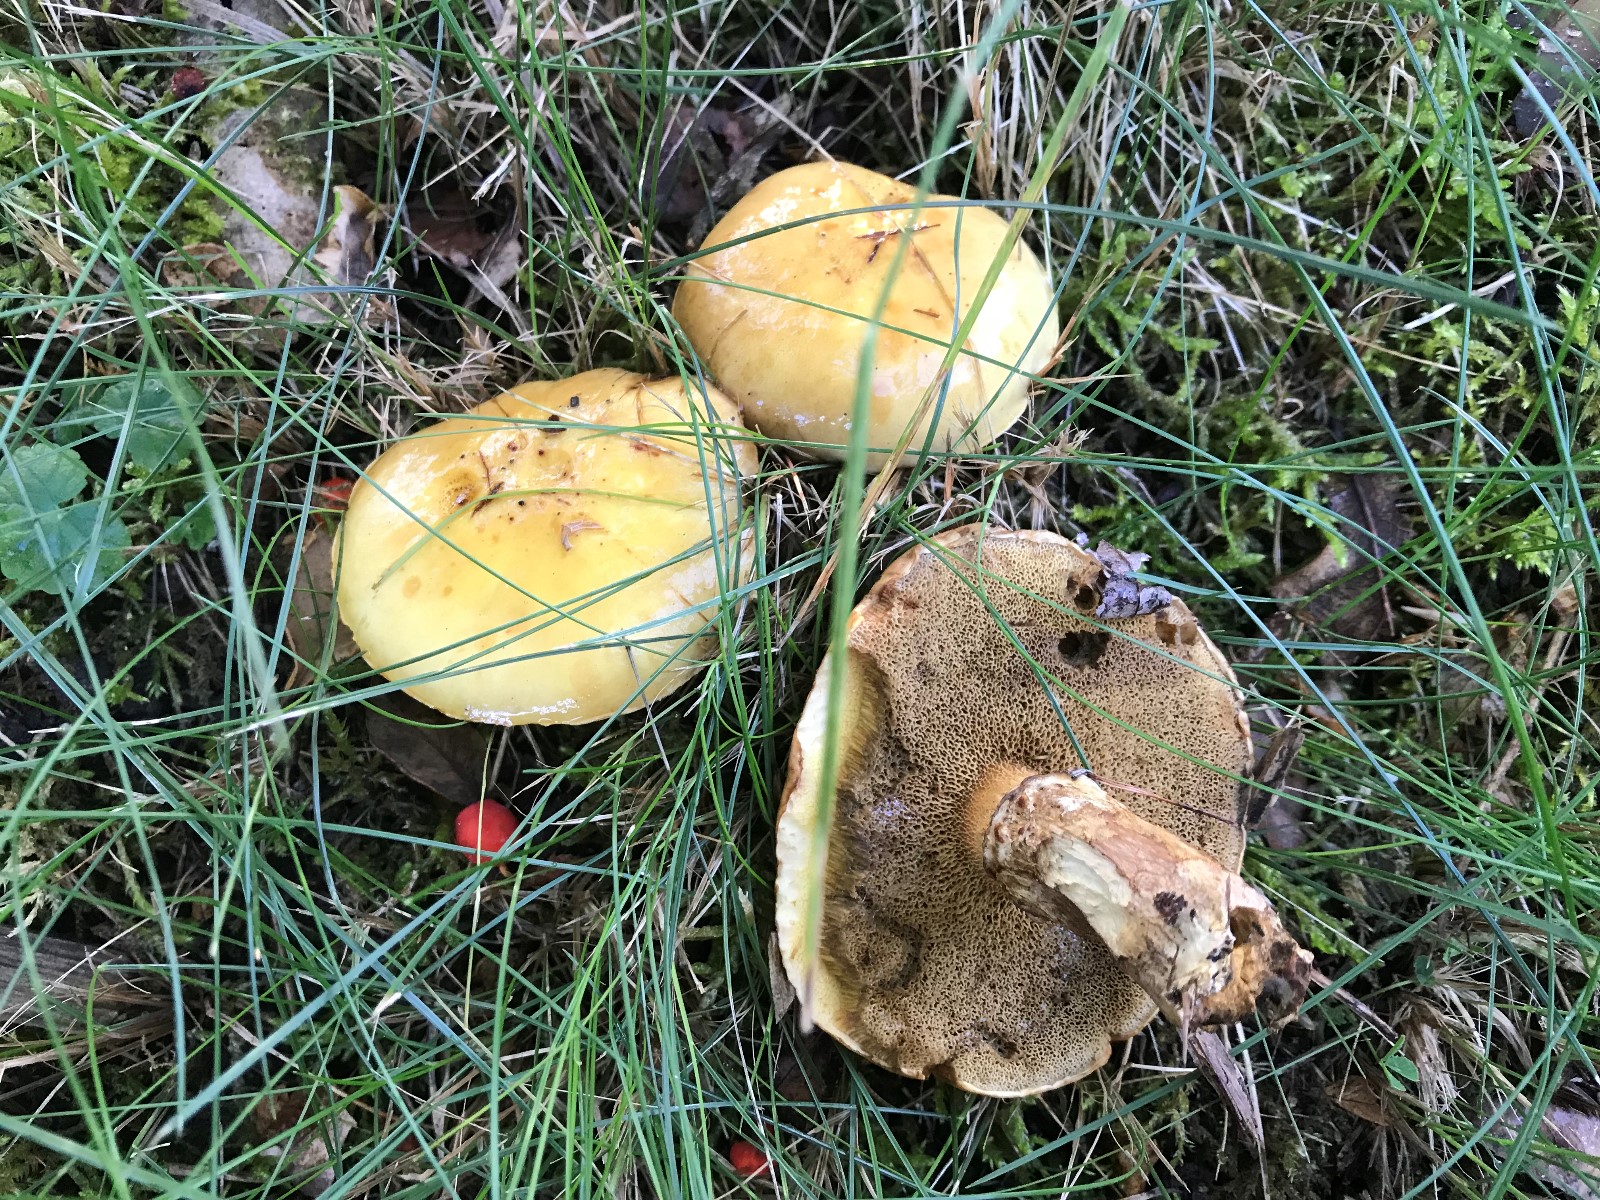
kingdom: Fungi
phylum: Basidiomycota
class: Agaricomycetes
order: Boletales
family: Suillaceae
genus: Suillus
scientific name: Suillus grevillei
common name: lærke-slimrørhat
